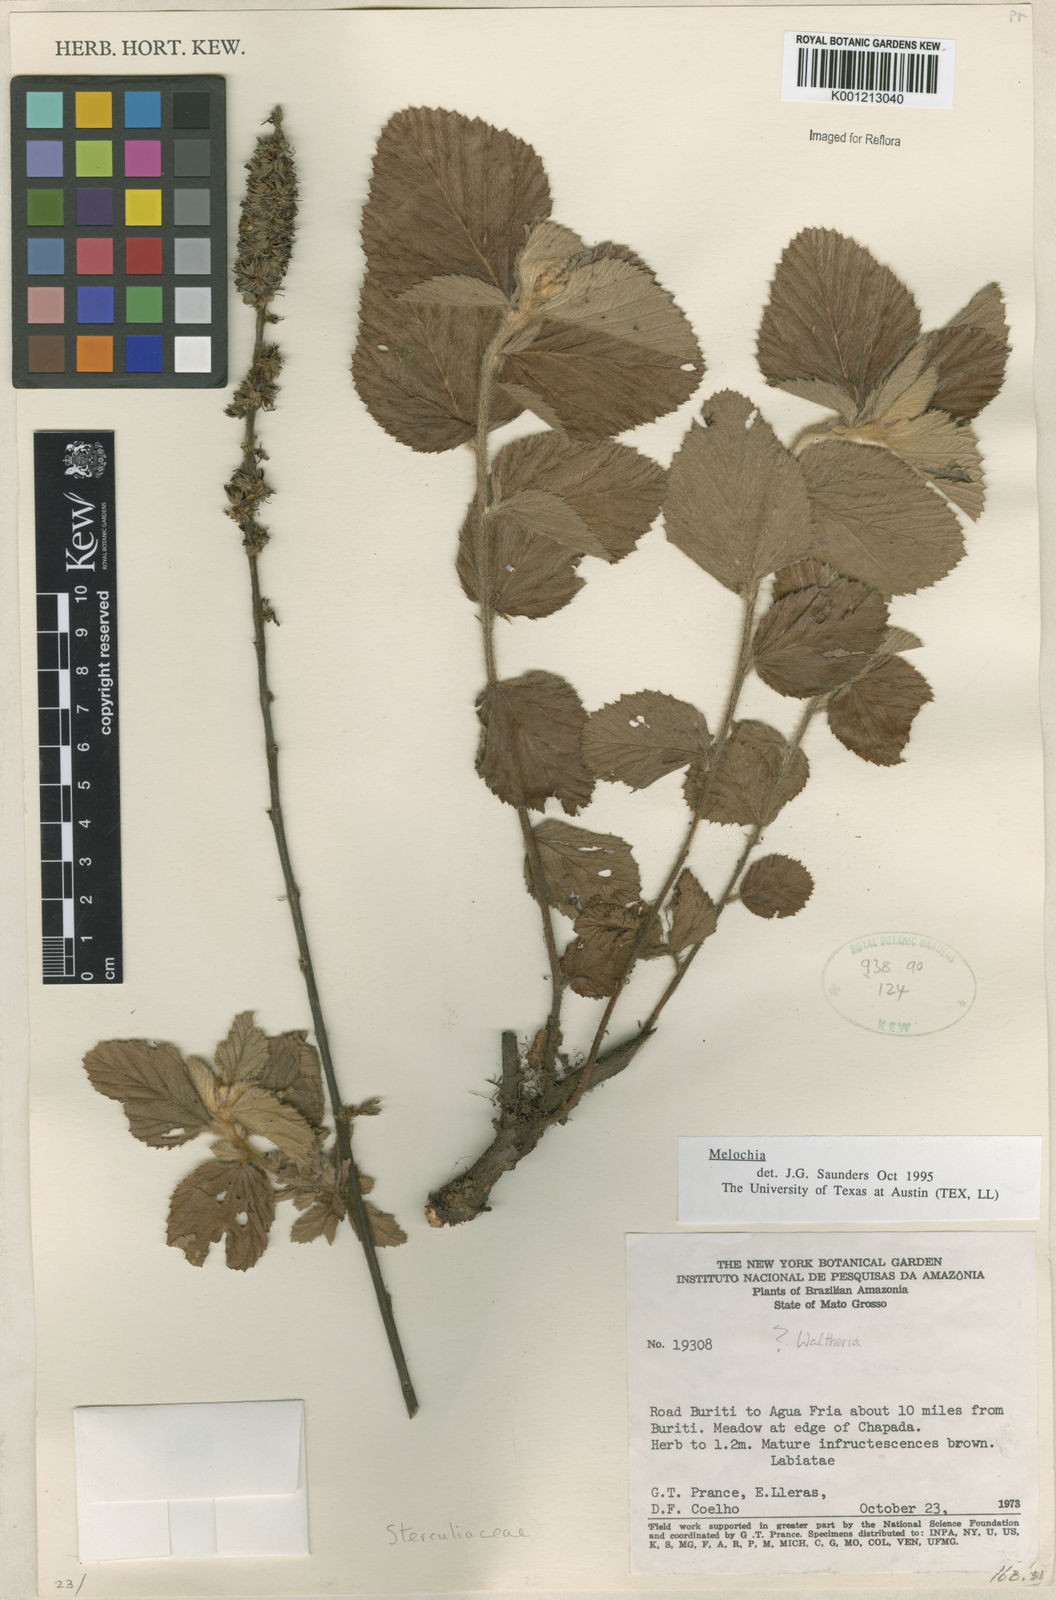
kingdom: Plantae
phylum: Tracheophyta
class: Magnoliopsida
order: Malvales
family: Malvaceae
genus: Melochia
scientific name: Melochia
